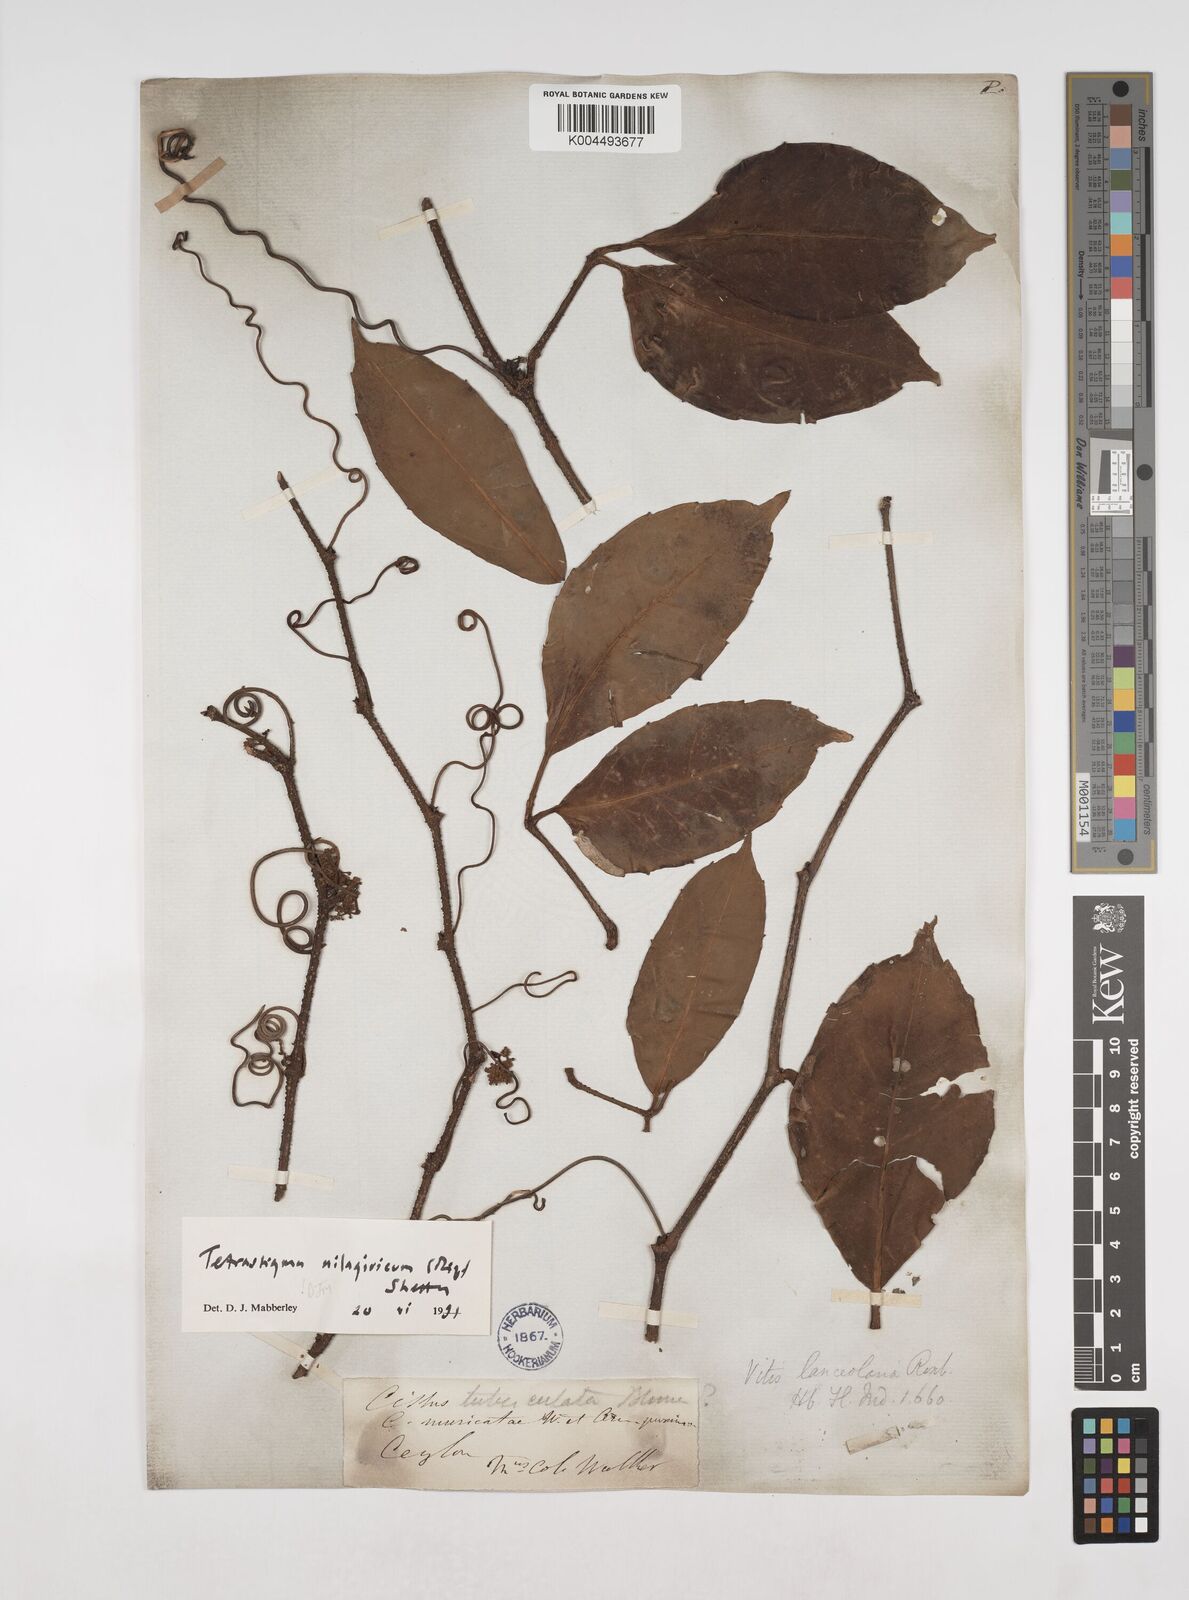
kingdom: Plantae
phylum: Tracheophyta
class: Magnoliopsida
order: Vitales
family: Vitaceae
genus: Tetrastigma
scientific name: Tetrastigma leucostaphylum
